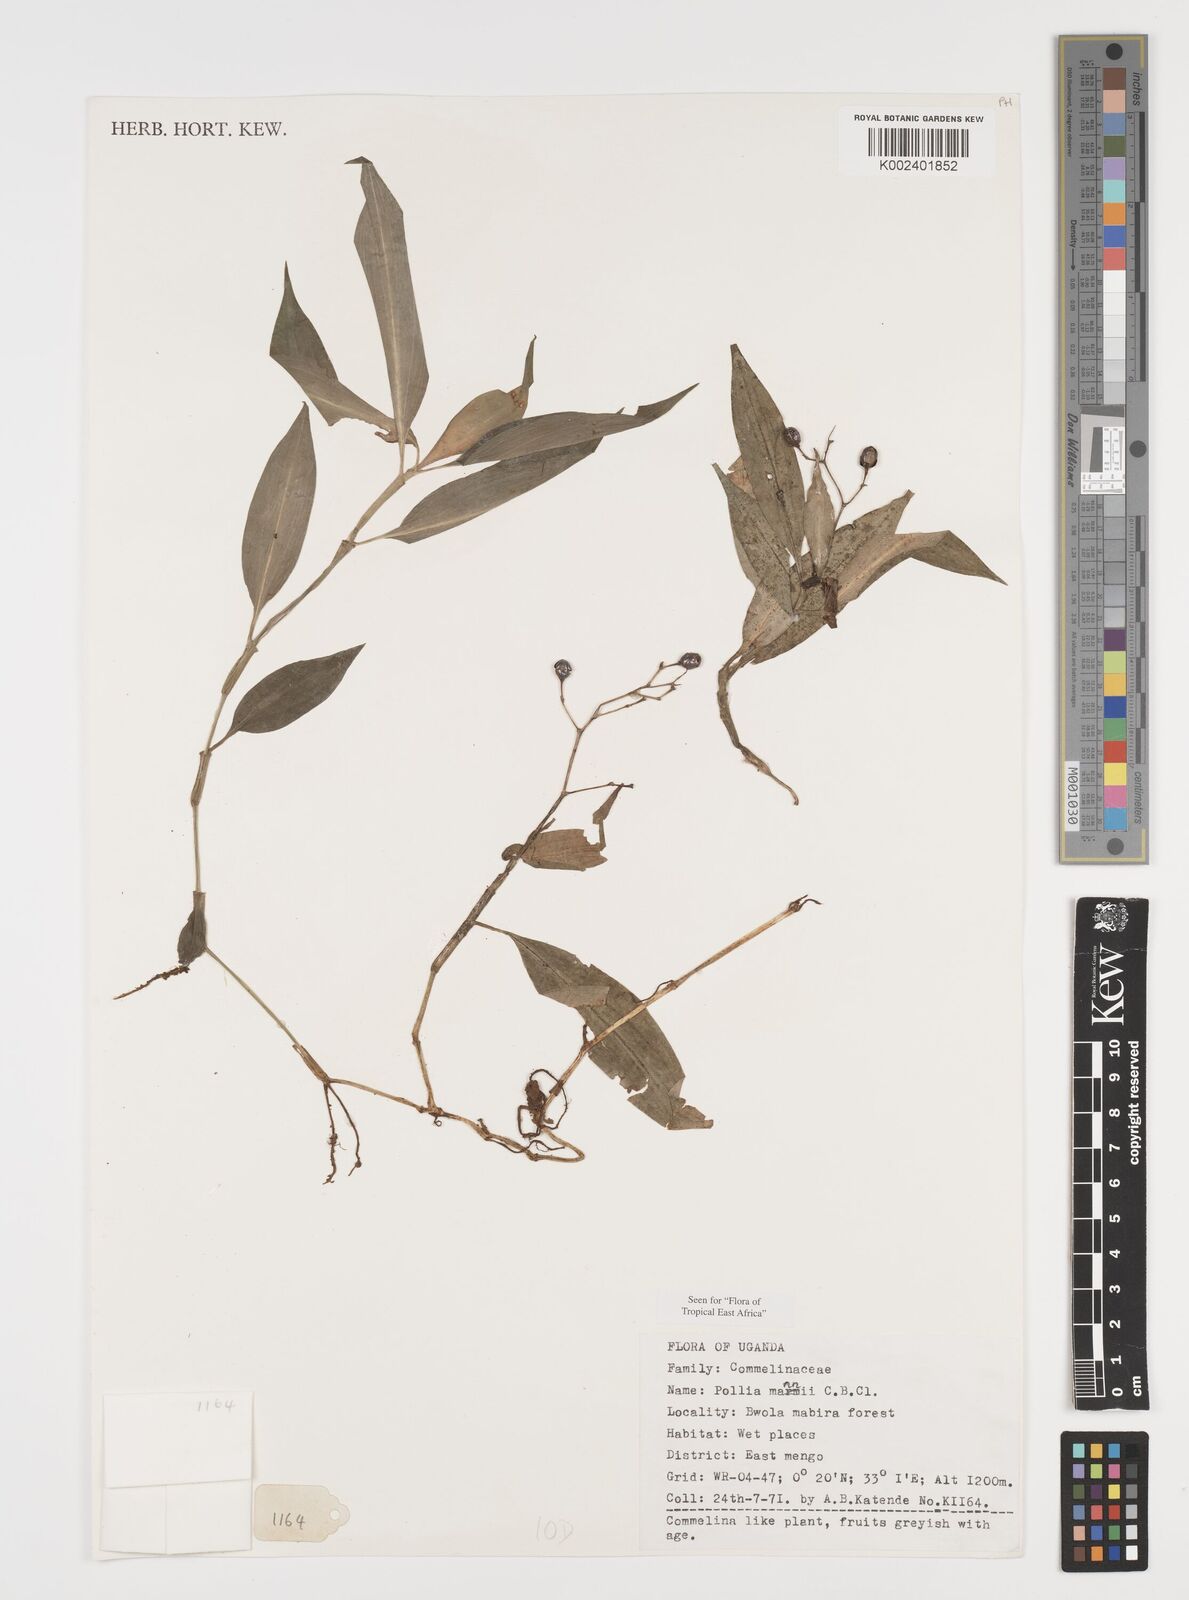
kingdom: Plantae
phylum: Tracheophyta
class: Liliopsida
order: Commelinales
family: Commelinaceae
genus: Pollia
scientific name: Pollia mannii
